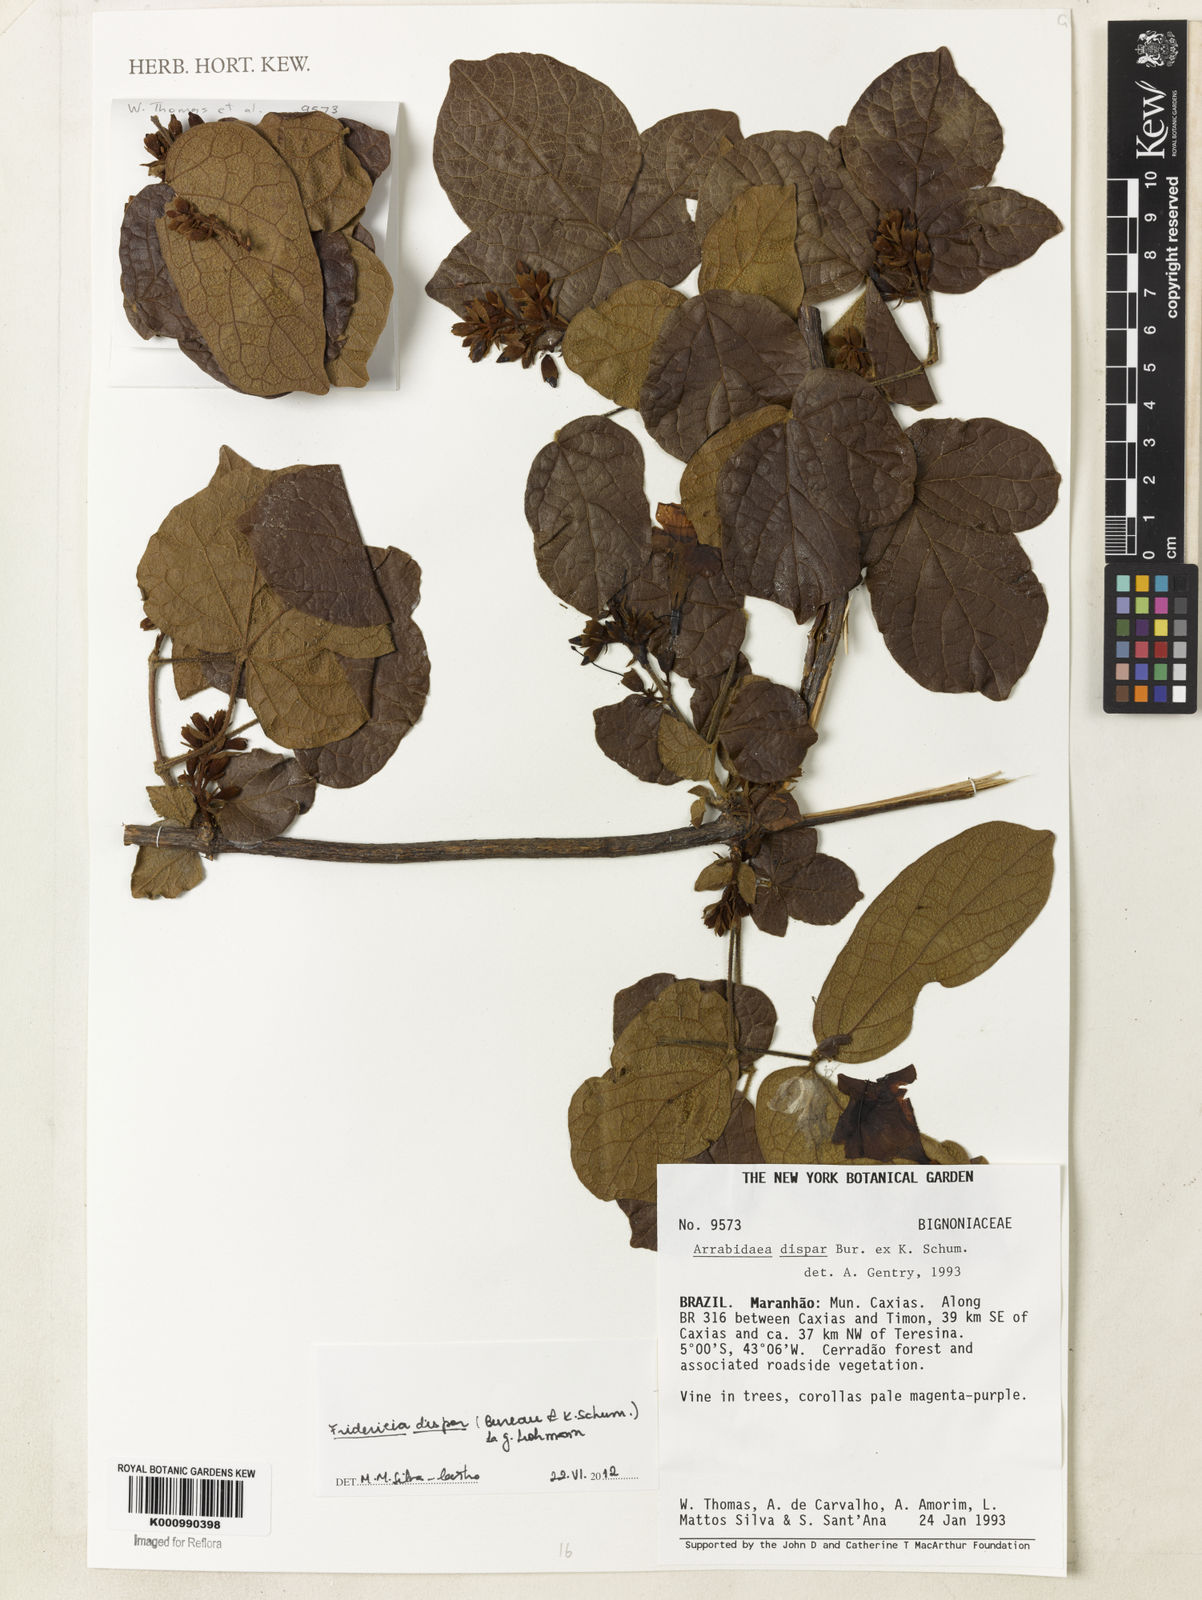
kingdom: Plantae
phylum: Tracheophyta
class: Magnoliopsida
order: Lamiales
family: Bignoniaceae
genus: Fridericia
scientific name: Fridericia dispar
